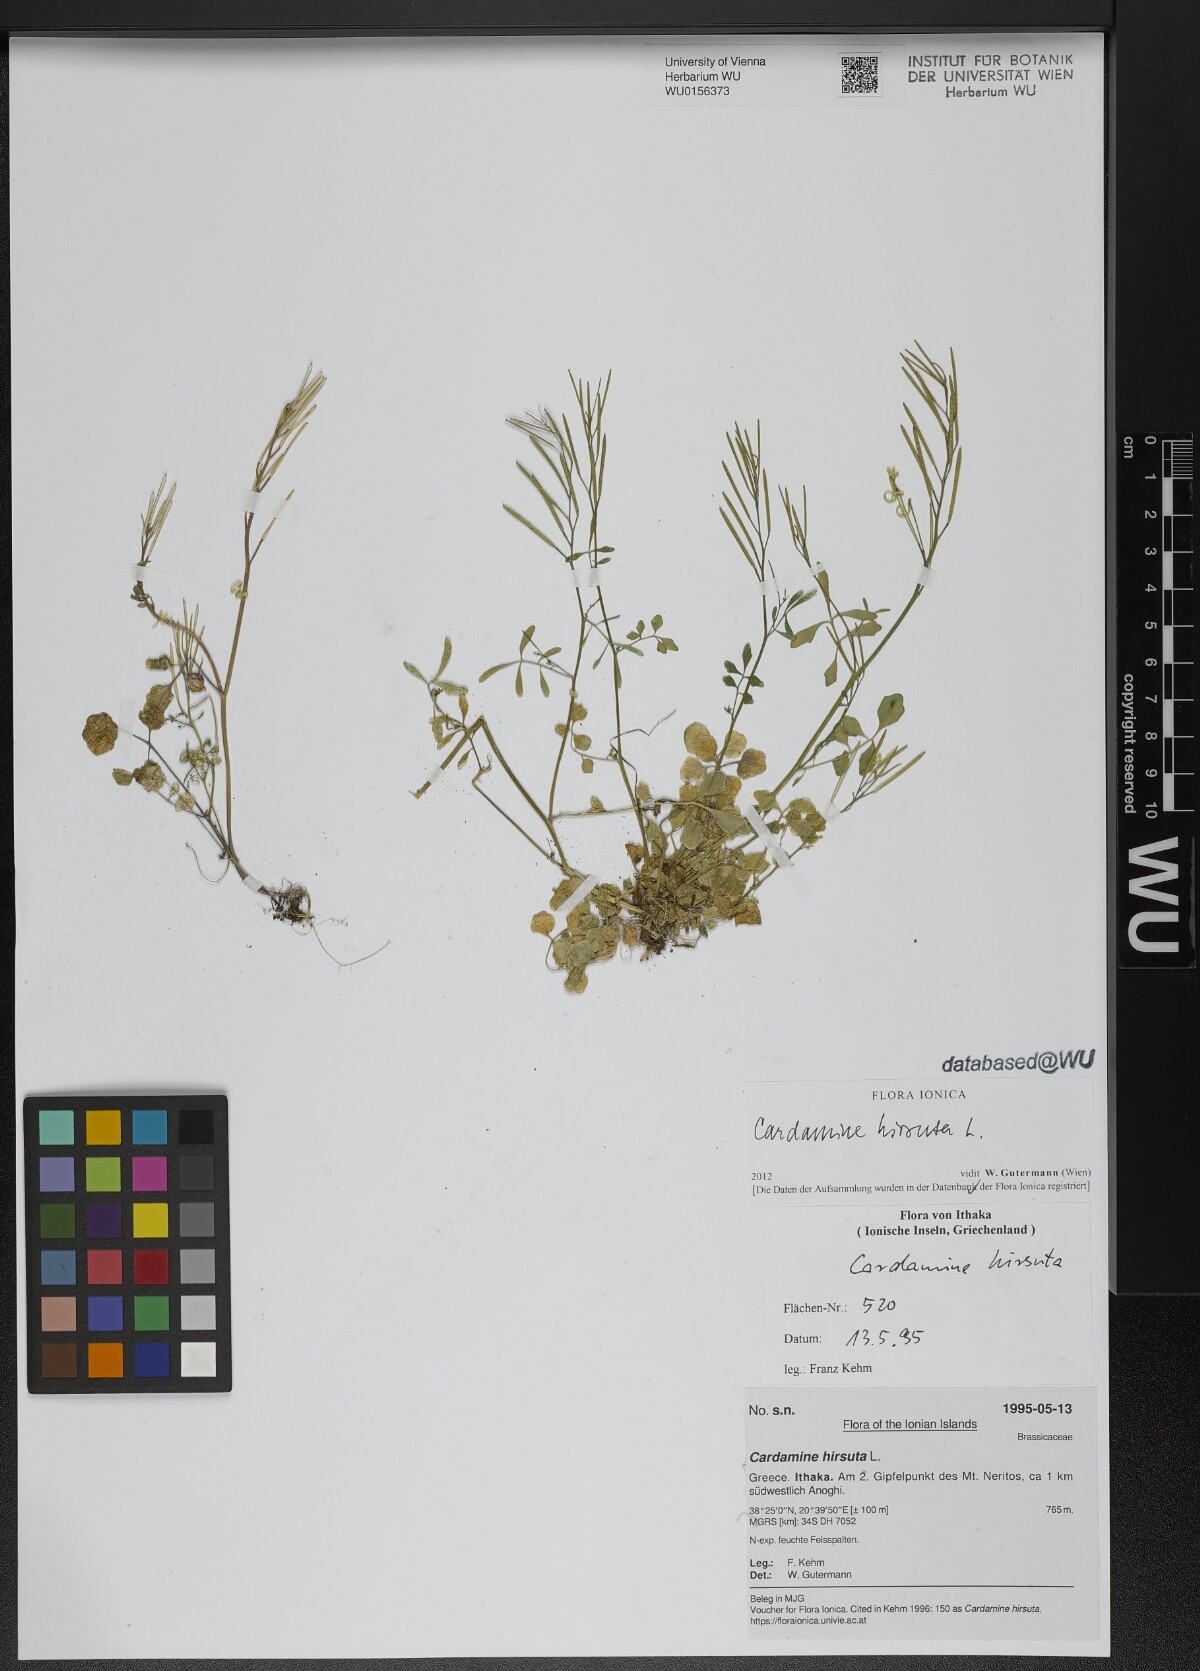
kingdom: Plantae
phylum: Tracheophyta
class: Magnoliopsida
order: Brassicales
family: Brassicaceae
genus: Cardamine
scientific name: Cardamine hirsuta
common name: Hairy bittercress
